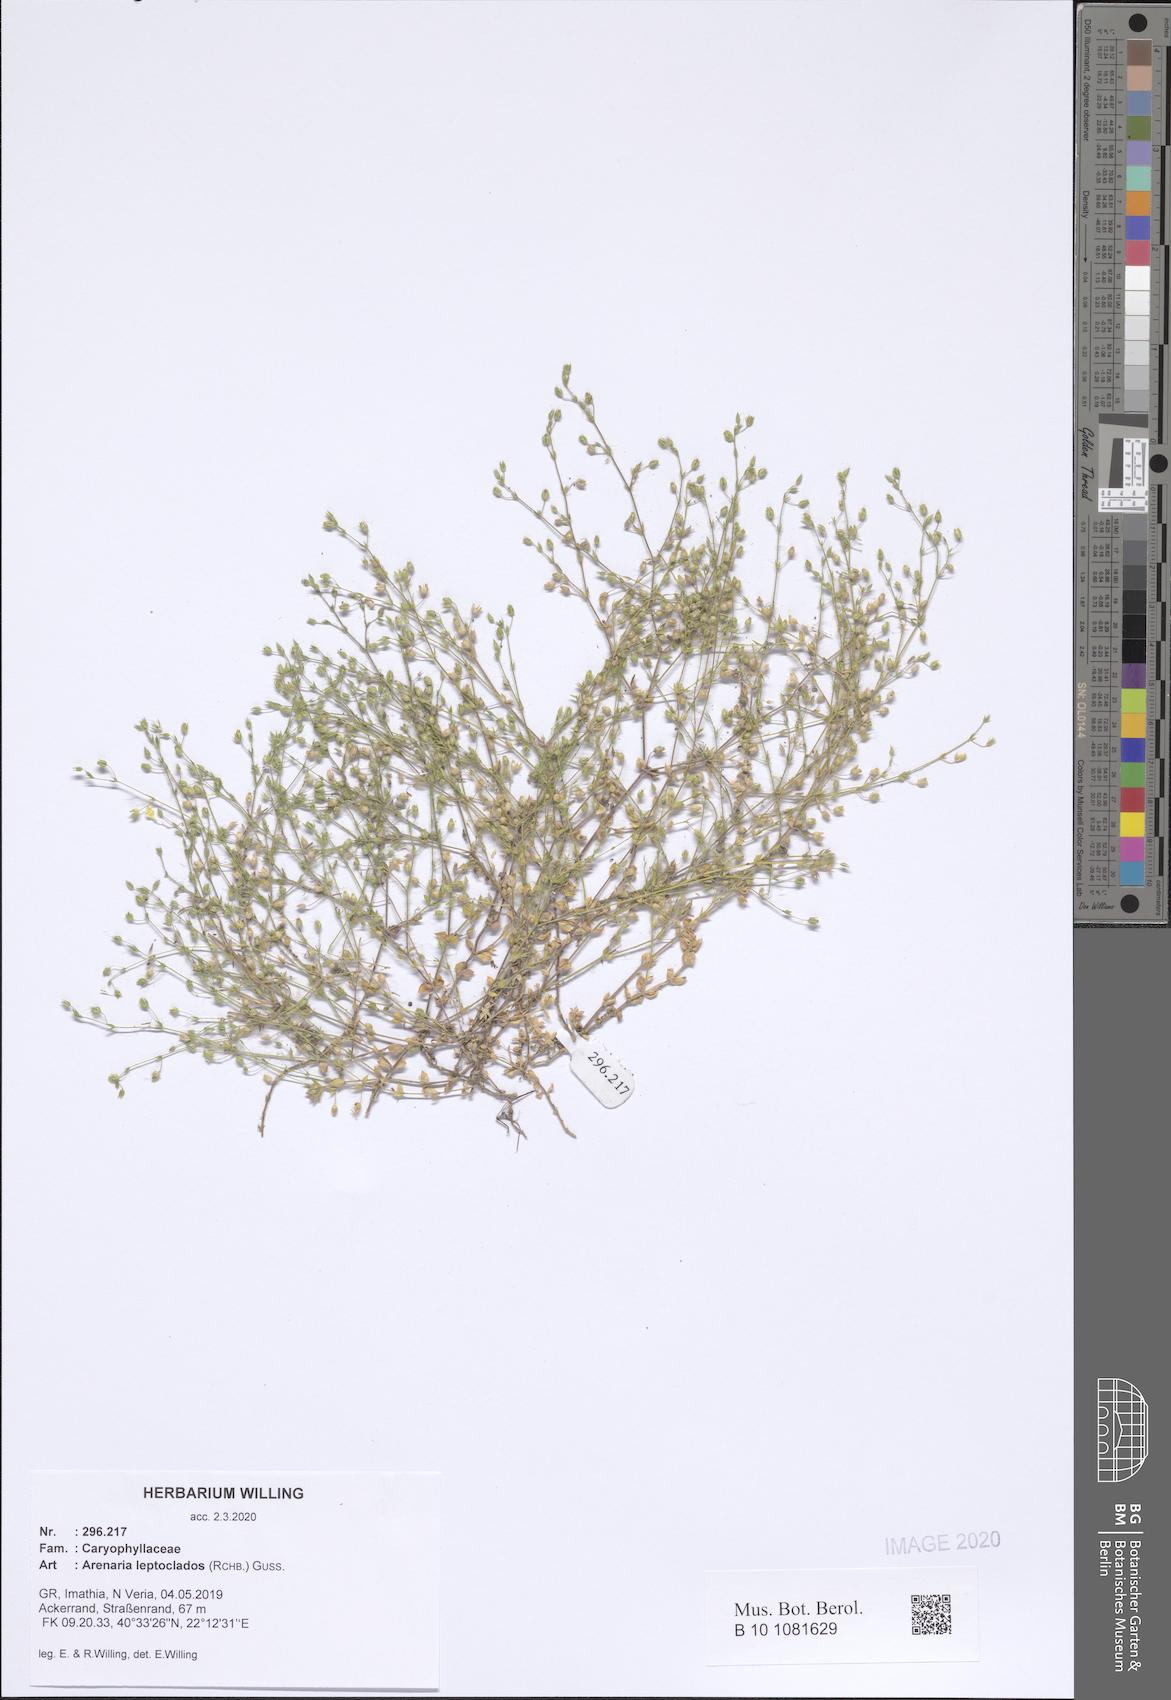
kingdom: Plantae
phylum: Tracheophyta
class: Magnoliopsida
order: Caryophyllales
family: Caryophyllaceae
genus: Arenaria
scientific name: Arenaria leptoclados
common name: Thyme-leaved sandwort
